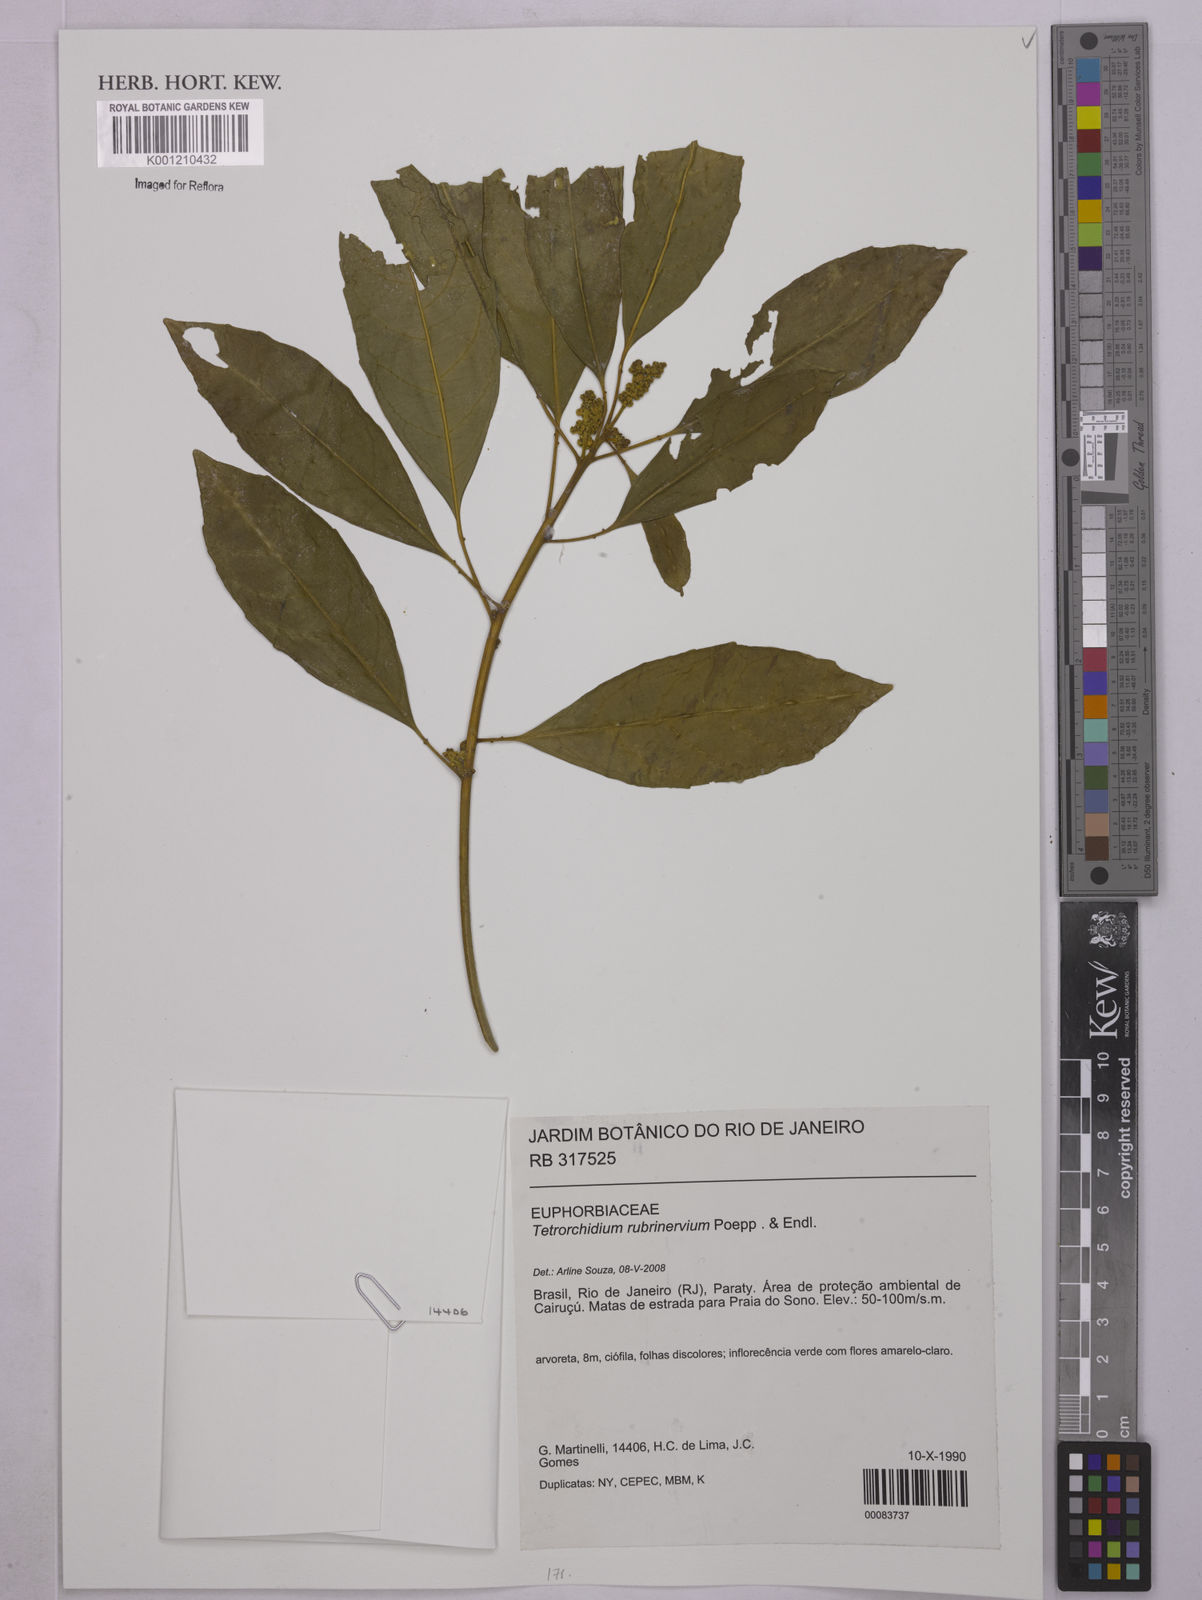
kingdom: Plantae
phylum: Tracheophyta
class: Magnoliopsida
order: Malpighiales
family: Euphorbiaceae
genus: Tetrorchidium
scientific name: Tetrorchidium rubrivenium
